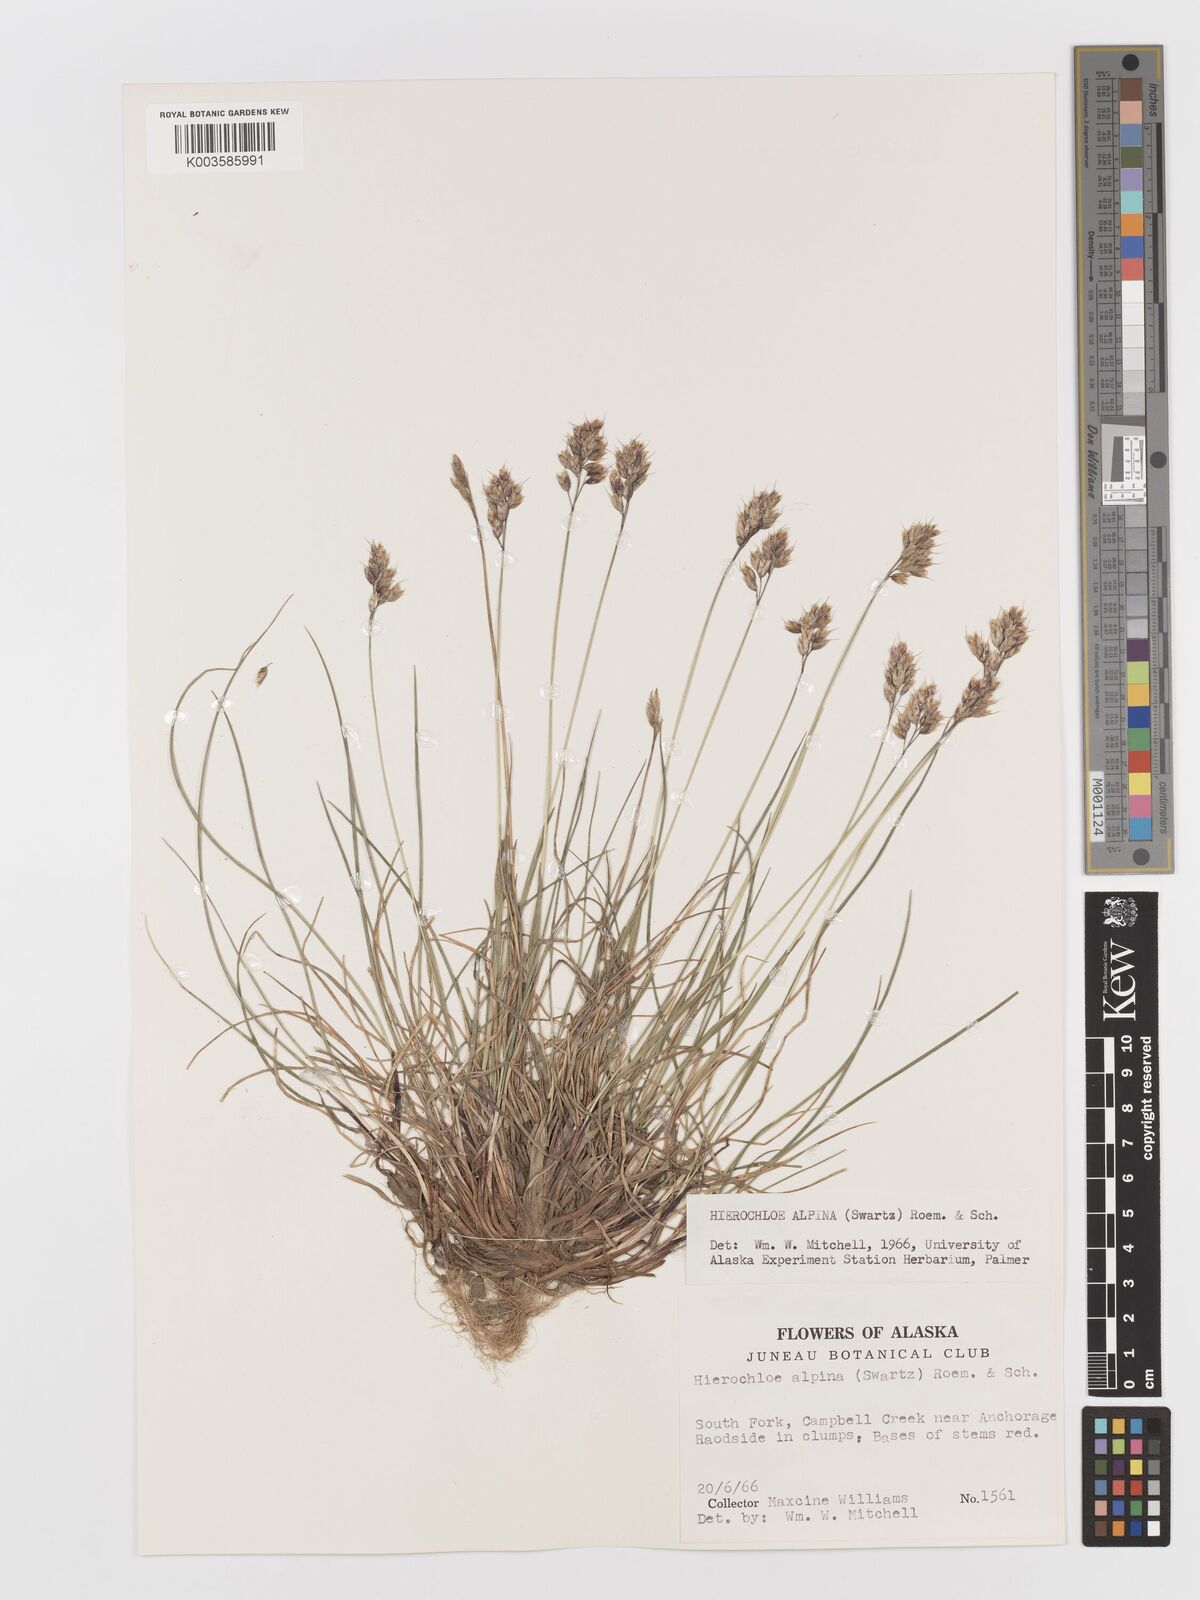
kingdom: Plantae
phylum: Tracheophyta
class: Liliopsida
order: Poales
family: Poaceae
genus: Anthoxanthum
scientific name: Anthoxanthum monticola
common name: Alpine sweetgrass
